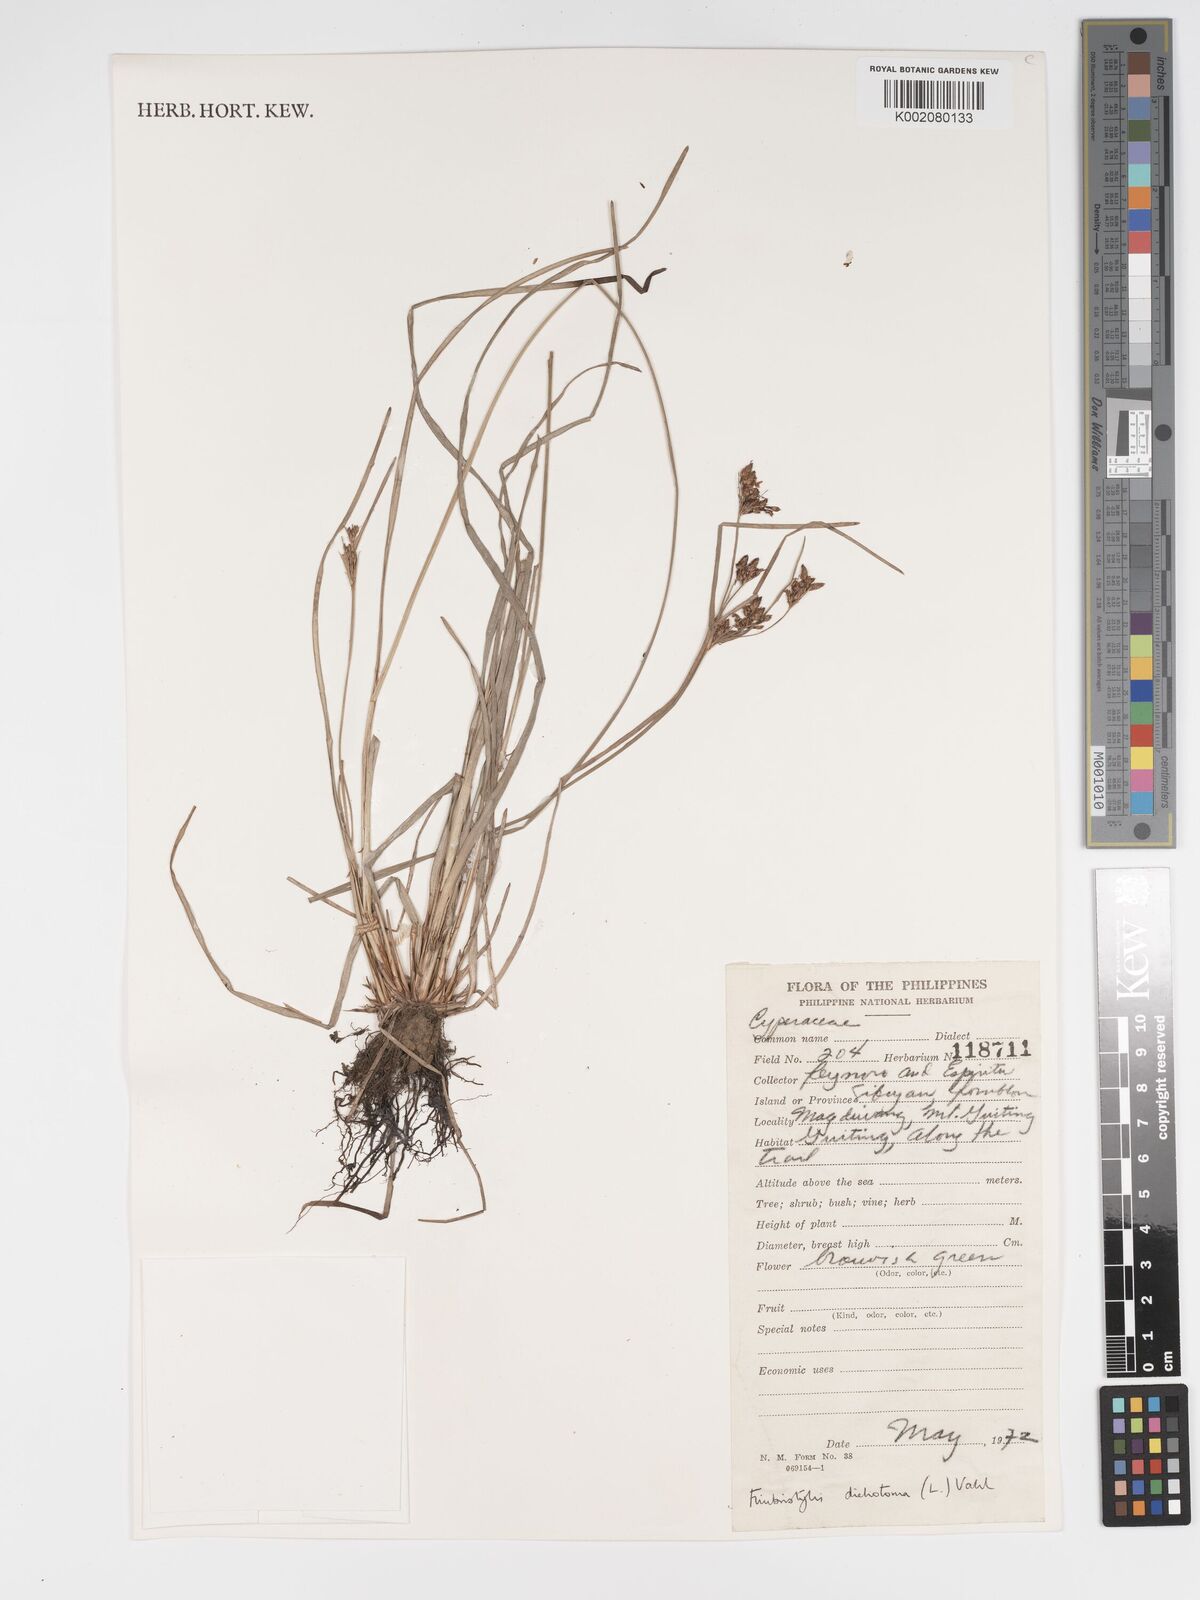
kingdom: Plantae
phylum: Tracheophyta
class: Liliopsida
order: Poales
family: Cyperaceae
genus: Fimbristylis
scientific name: Fimbristylis dichotoma
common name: Forked fimbry
